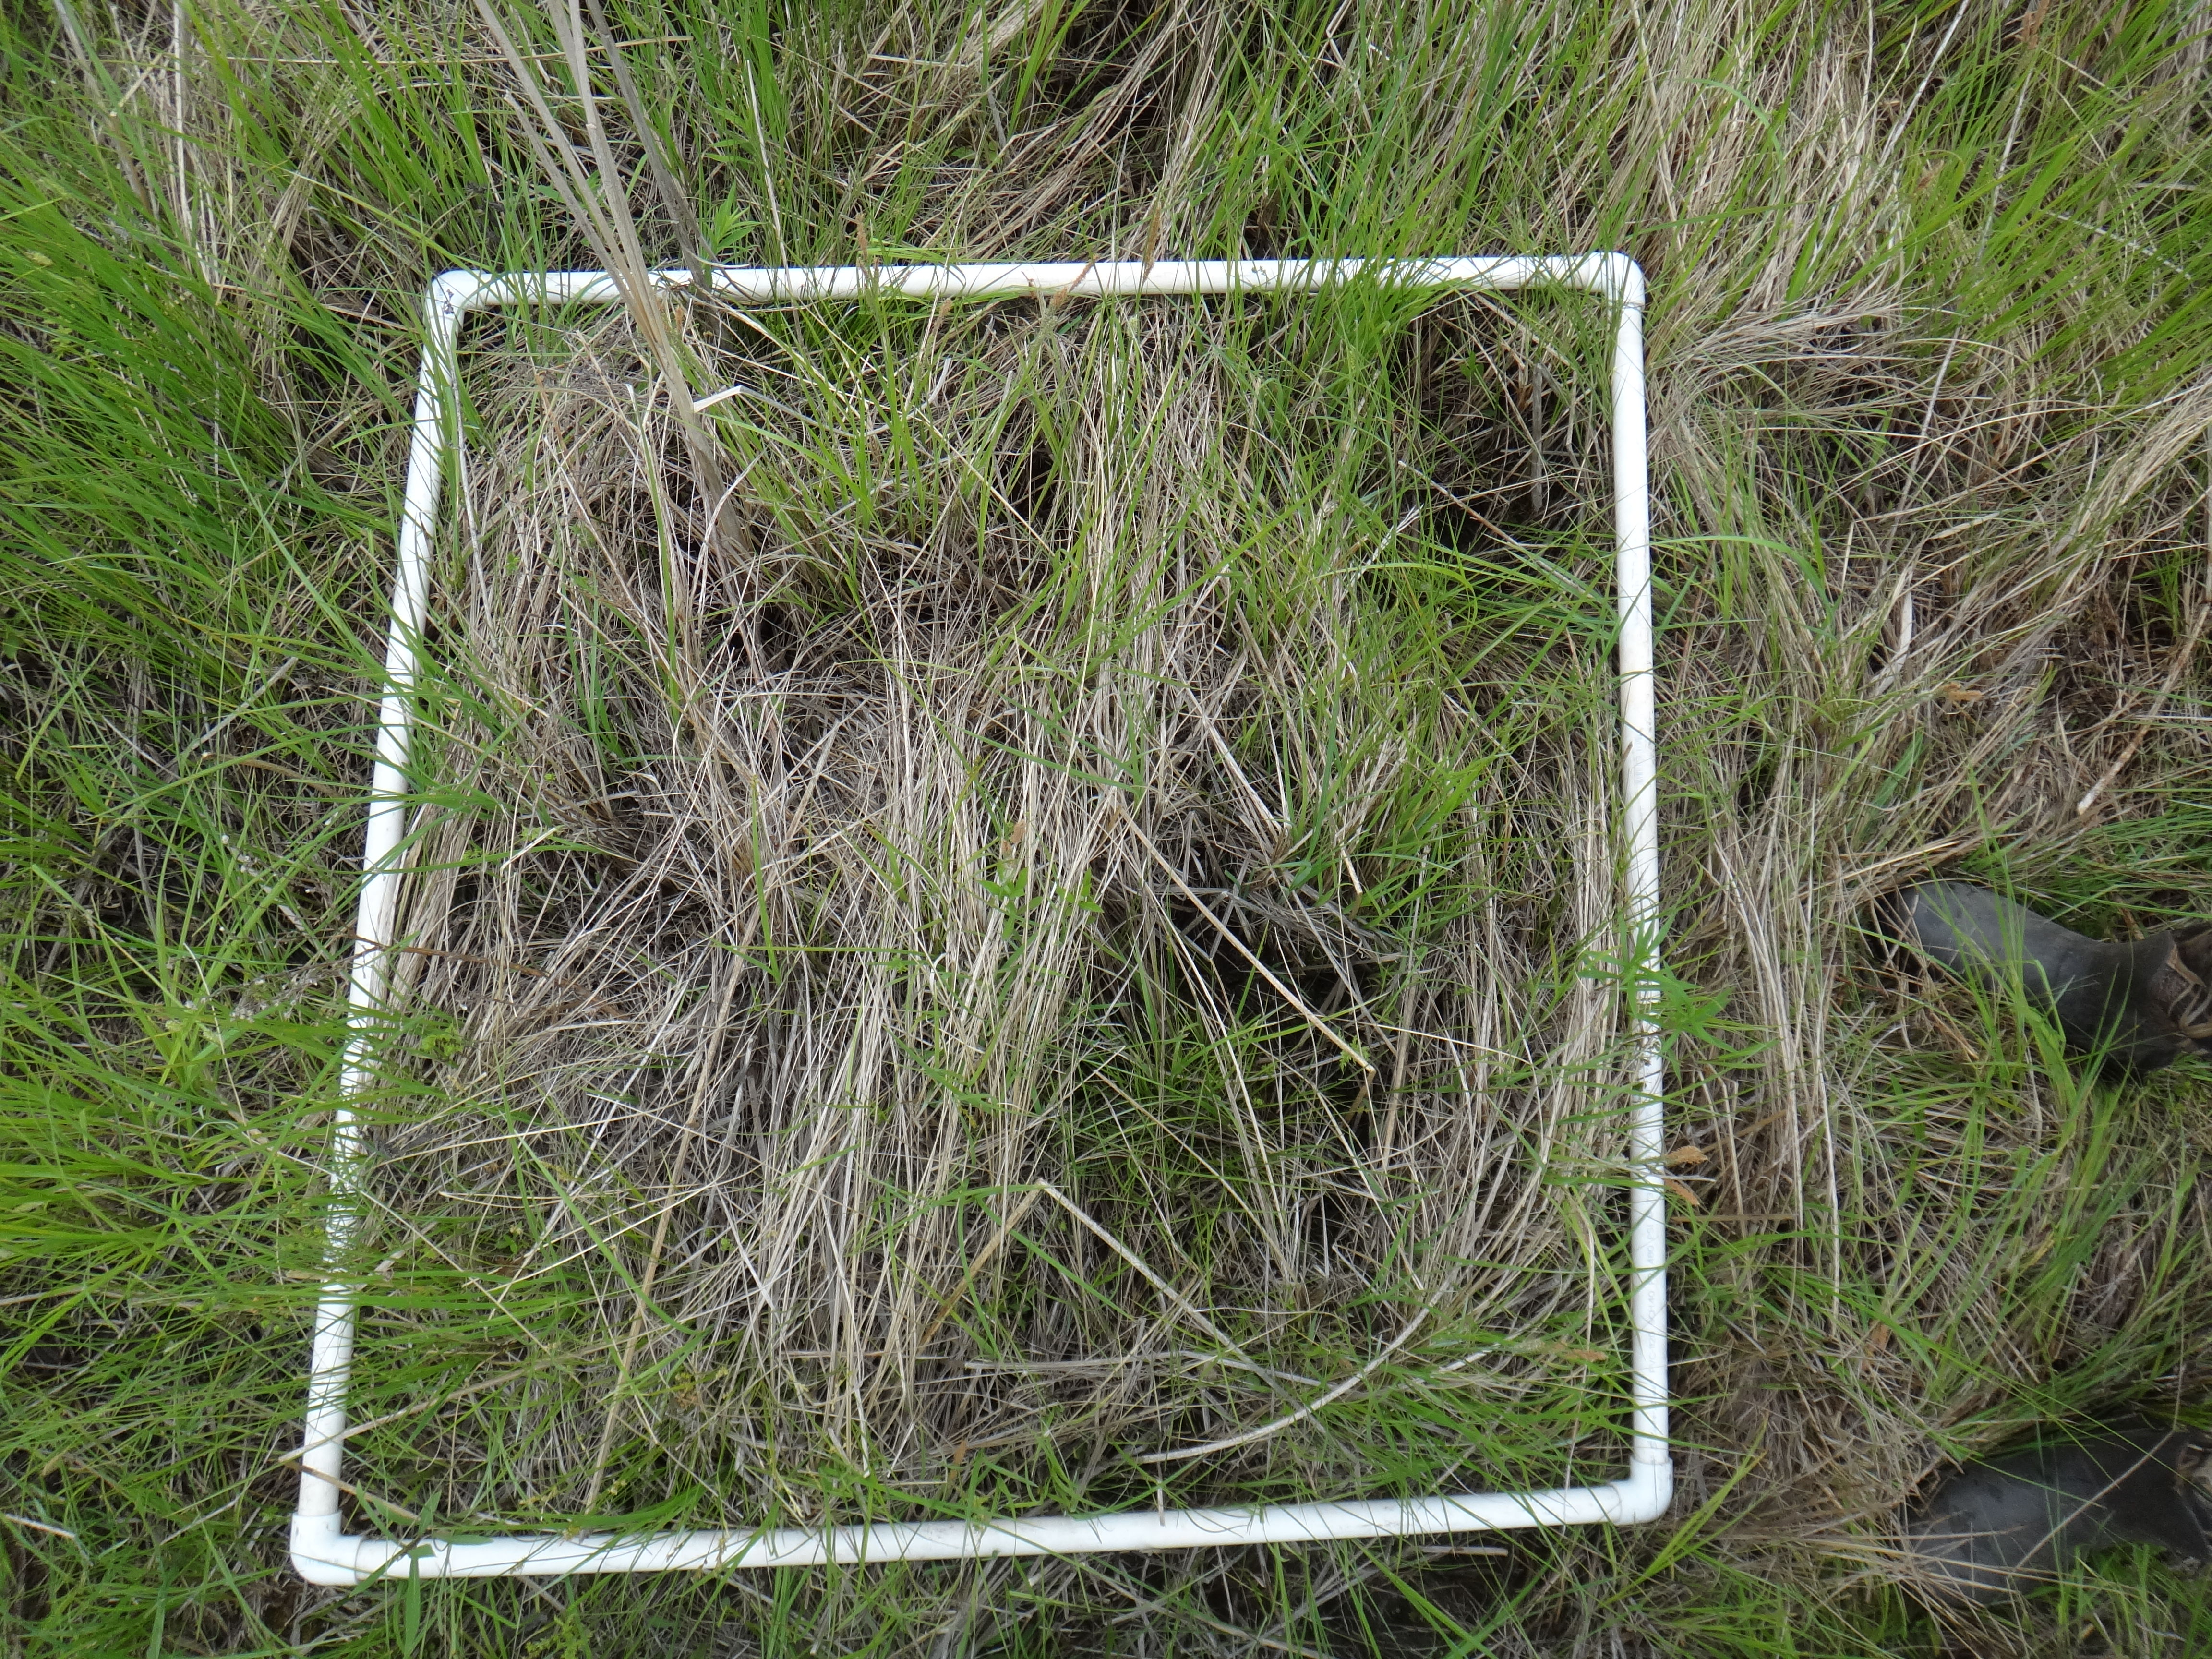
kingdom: Plantae
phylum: Tracheophyta
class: Liliopsida
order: Poales
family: Poaceae
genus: Glyceria
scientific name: Glyceria striata
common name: Fowl manna grass
